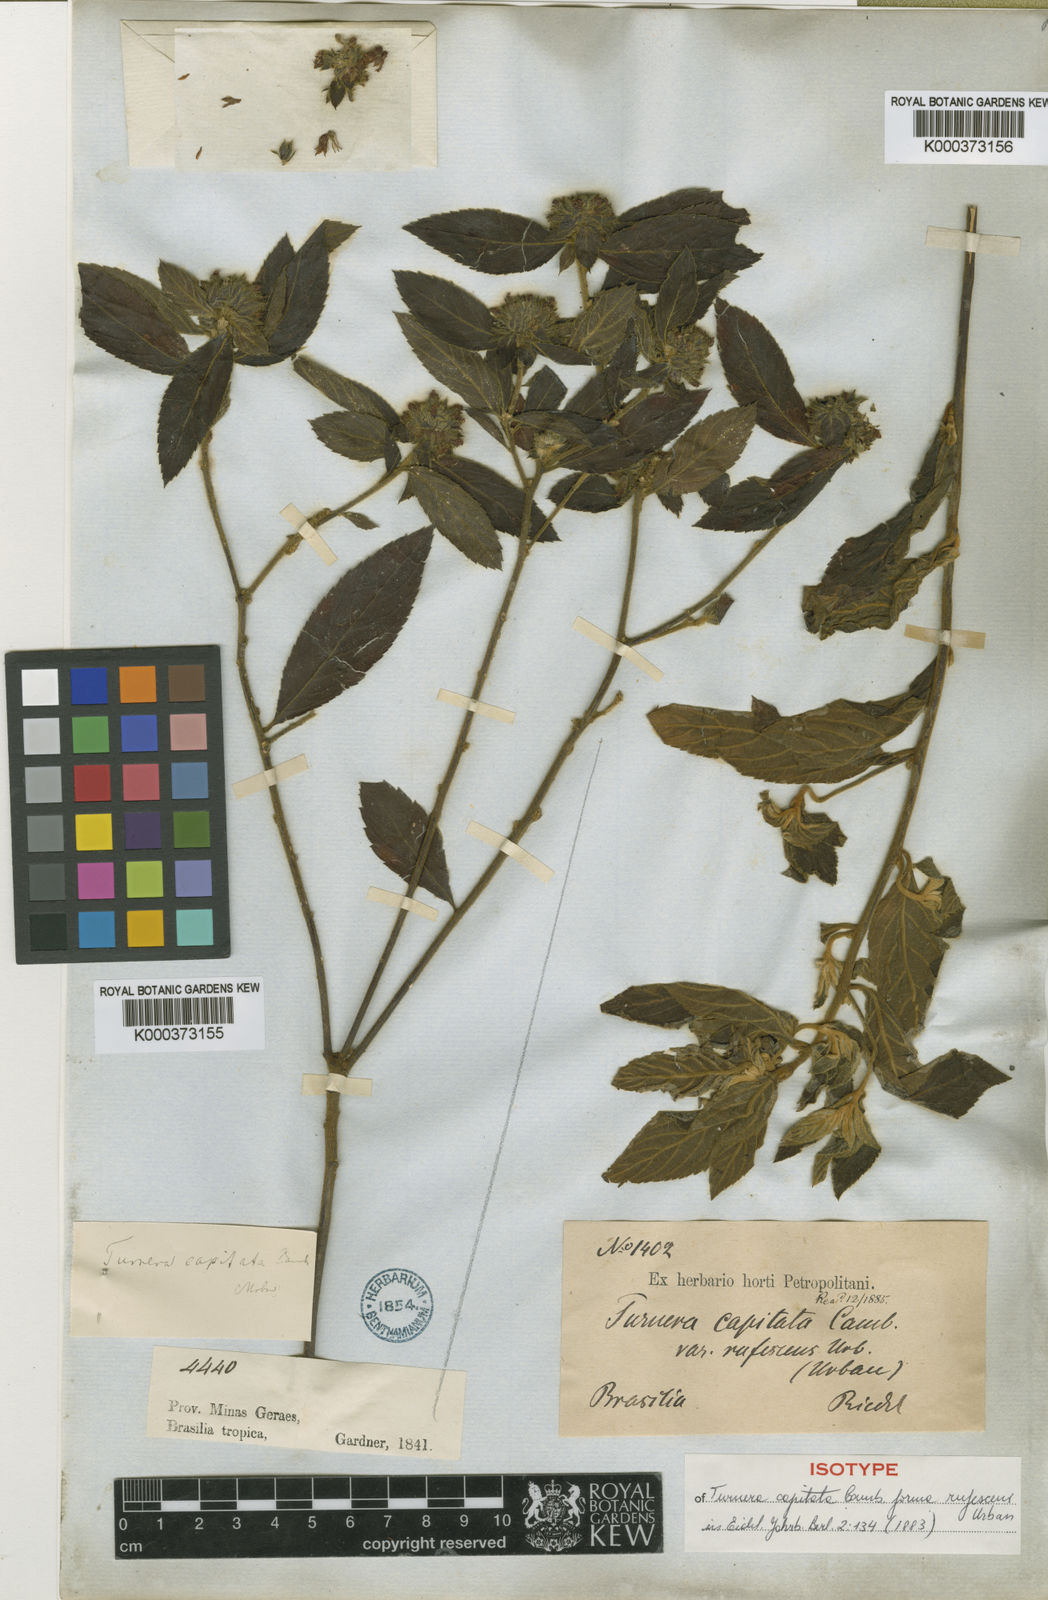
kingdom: Plantae
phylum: Tracheophyta
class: Magnoliopsida
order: Malpighiales
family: Turneraceae
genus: Oxossia
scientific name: Oxossia capitata
